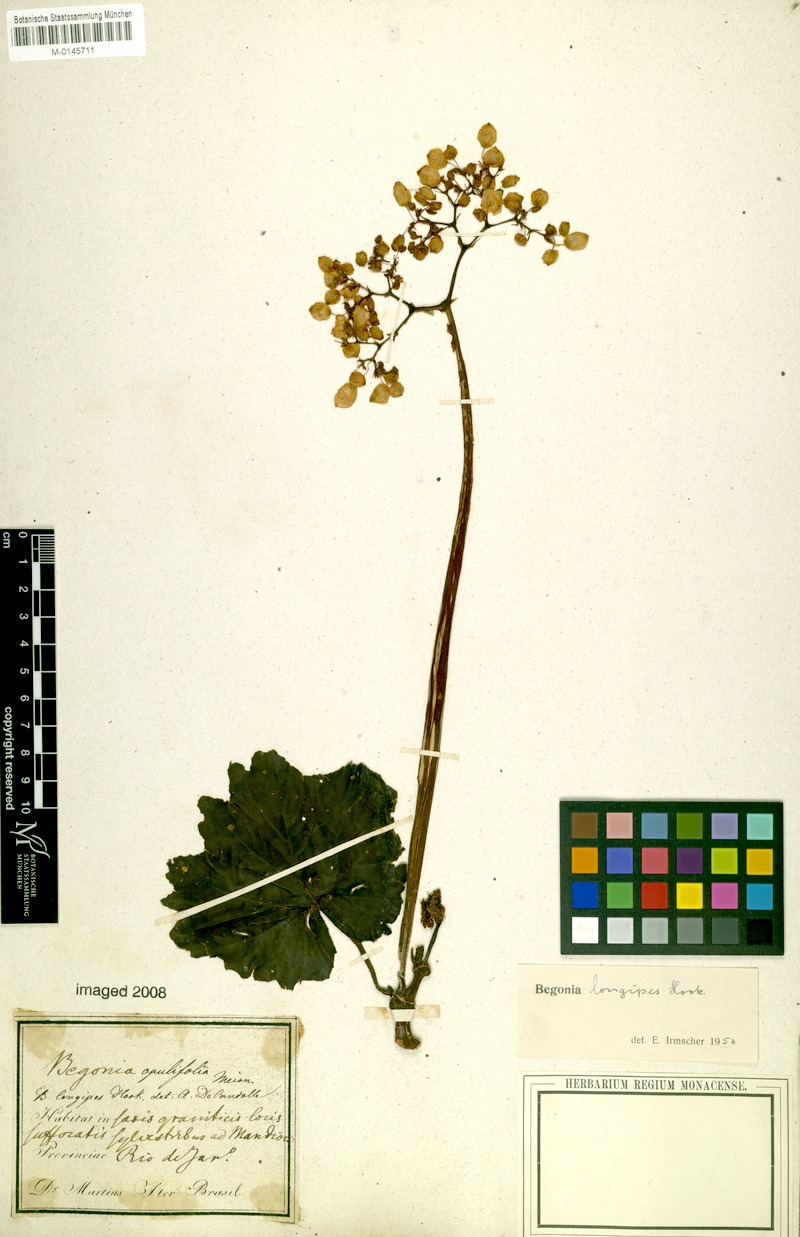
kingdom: Plantae
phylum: Tracheophyta
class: Magnoliopsida
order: Cucurbitales
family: Begoniaceae
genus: Begonia
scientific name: Begonia reniformis
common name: Grapeleaf begonia
